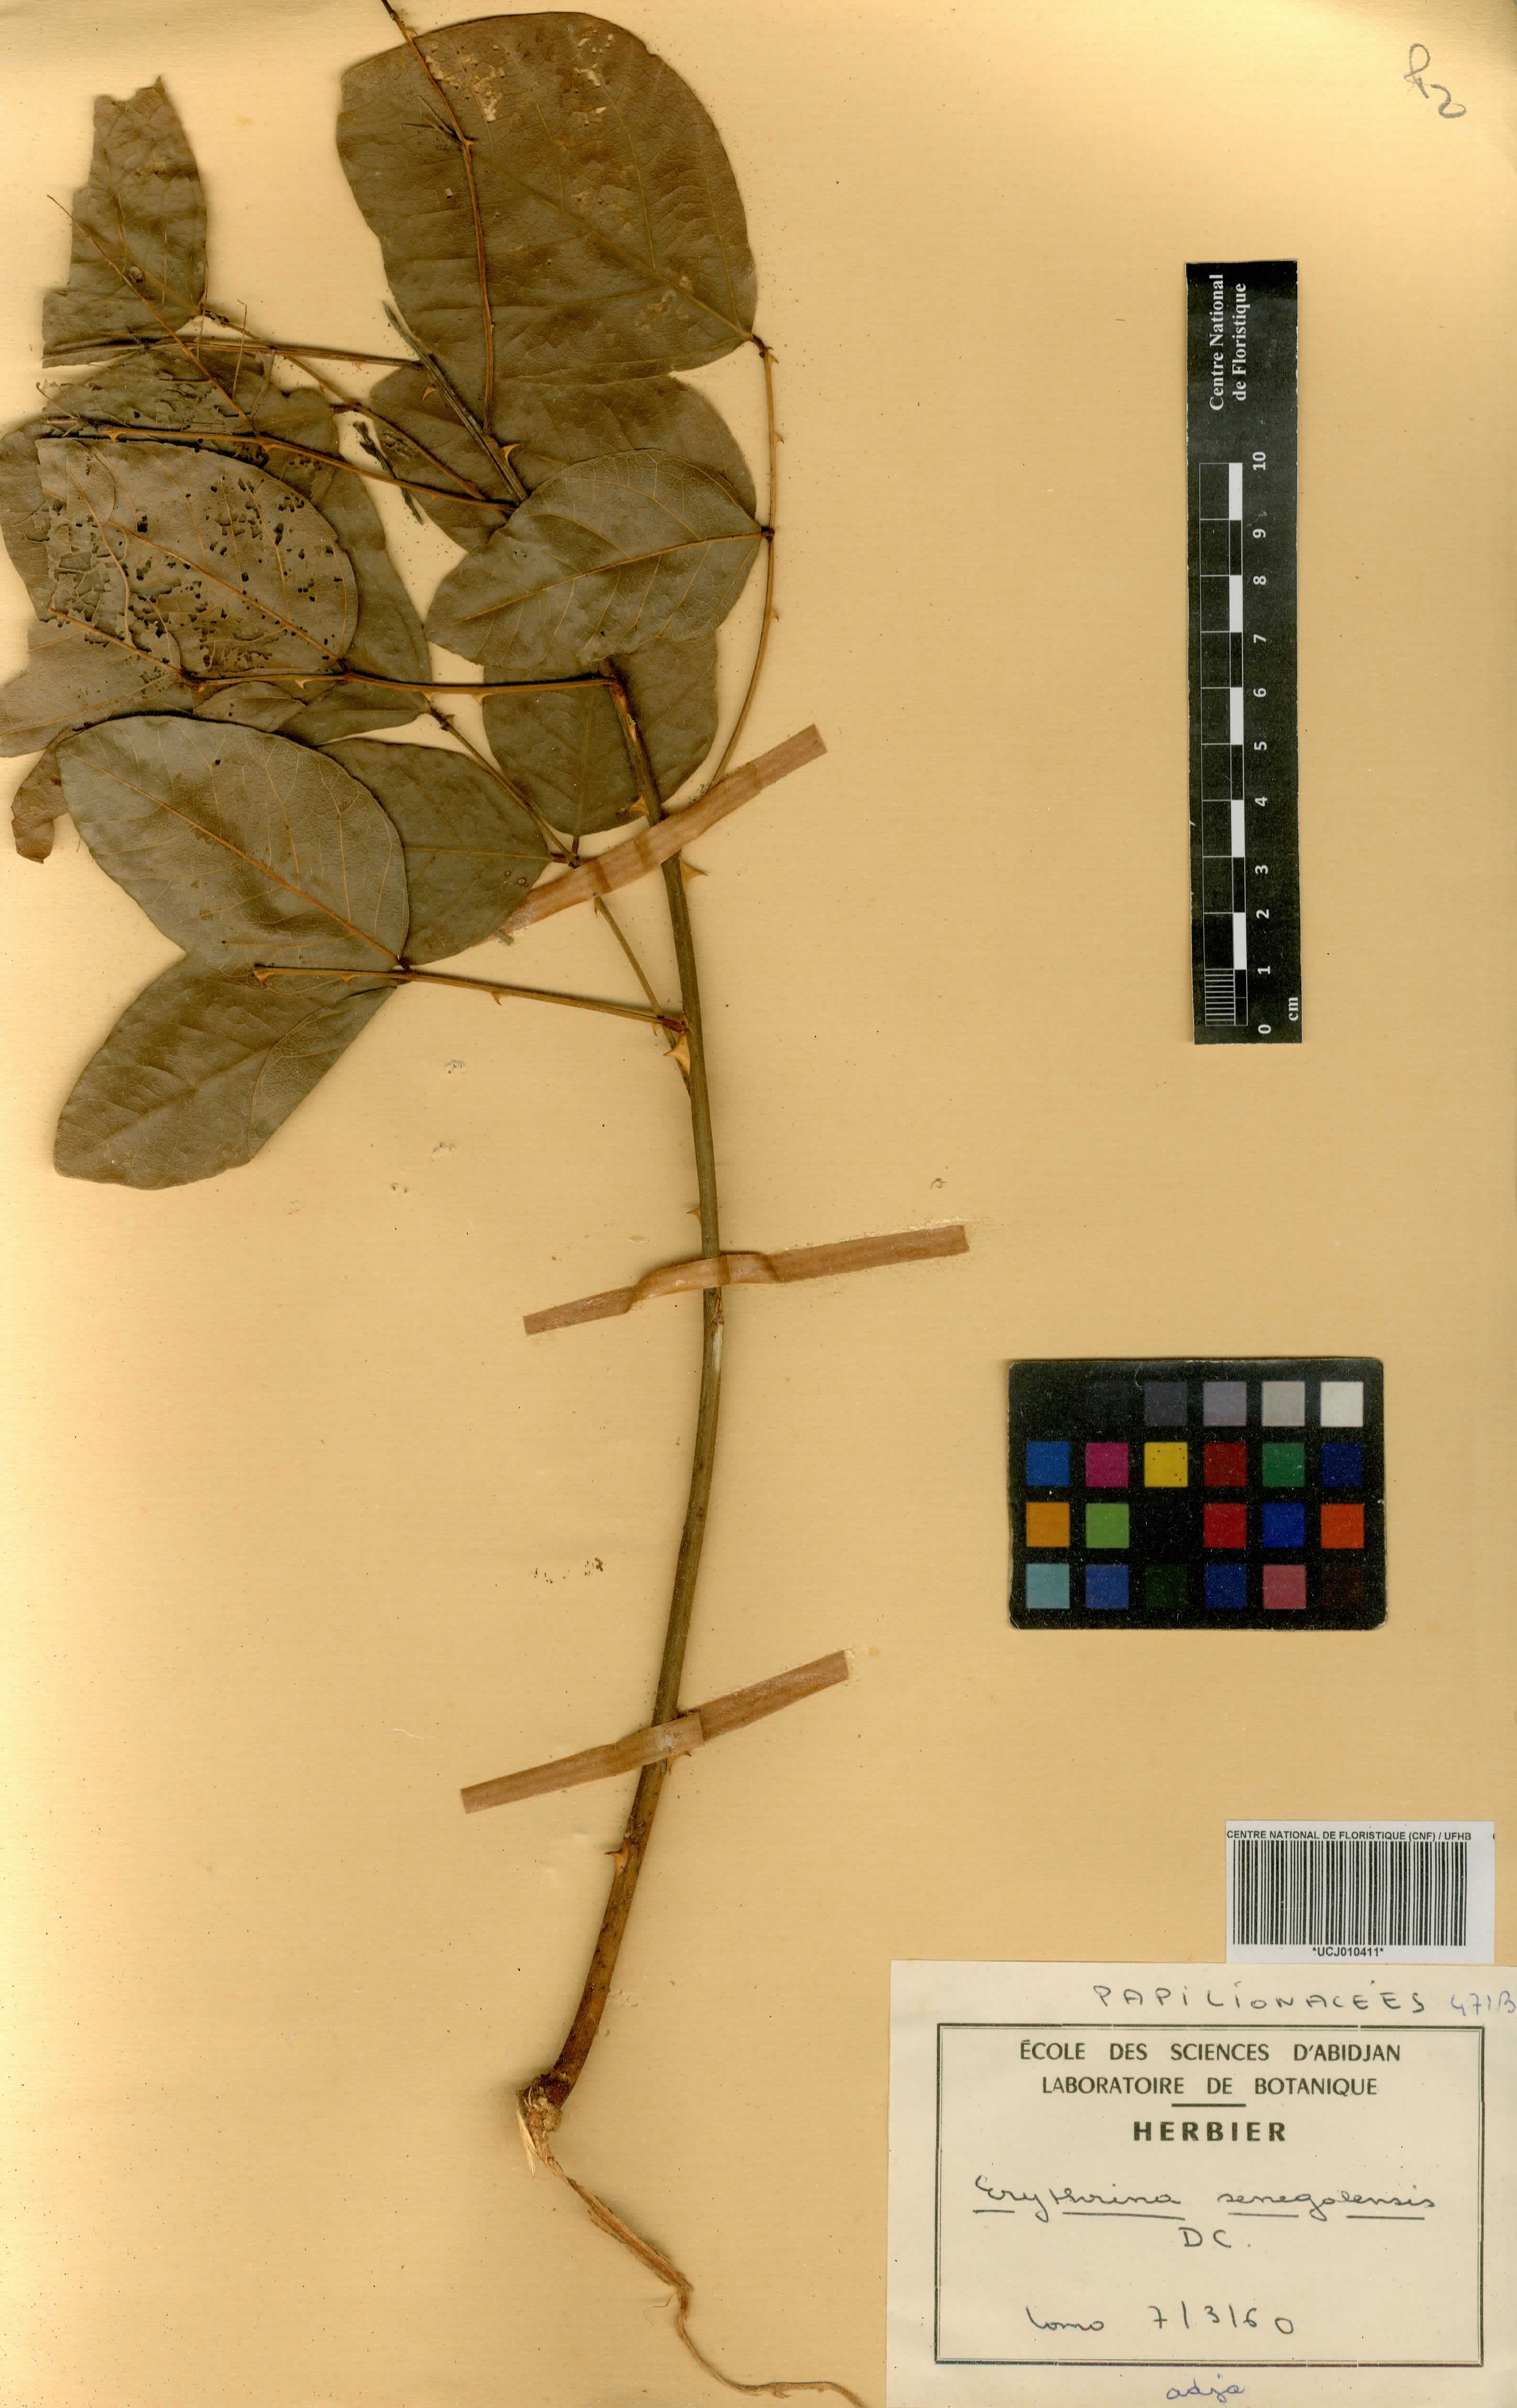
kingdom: Plantae
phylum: Tracheophyta
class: Magnoliopsida
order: Fabales
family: Fabaceae
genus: Erythrina
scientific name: Erythrina senegalensis
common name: Senegal coraltree
